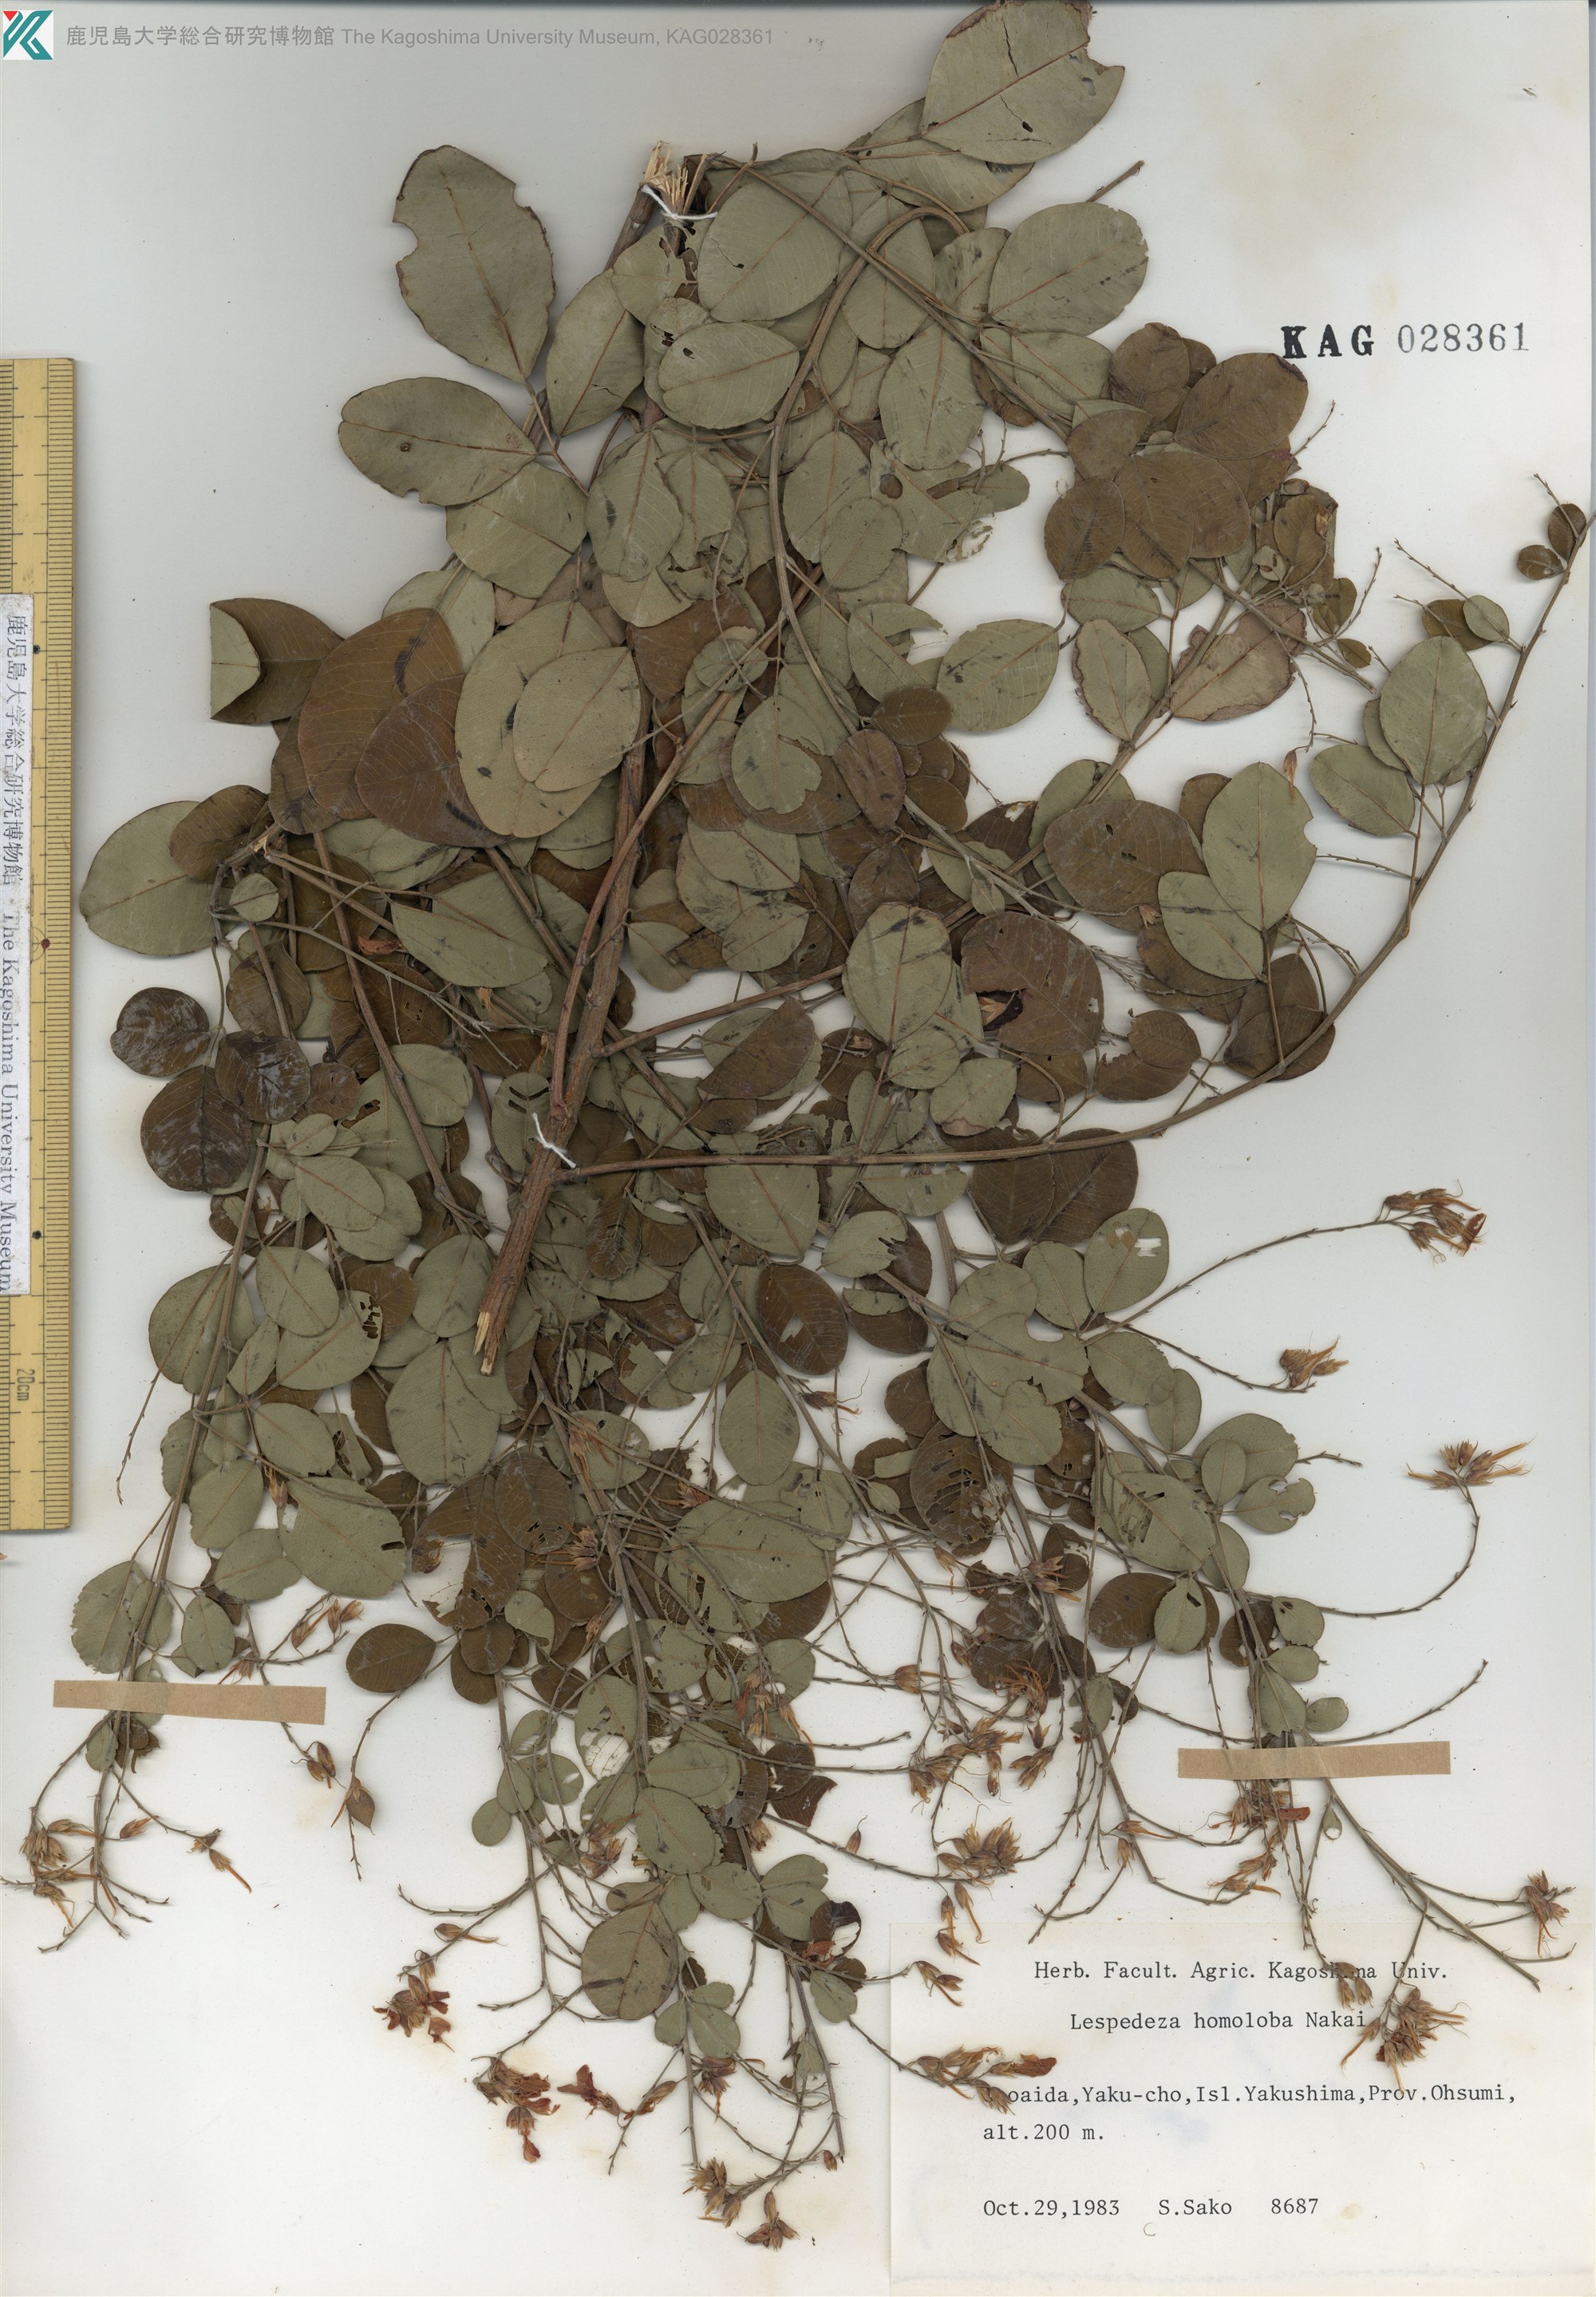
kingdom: Plantae
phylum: Tracheophyta
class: Magnoliopsida
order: Fabales
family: Fabaceae
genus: Lespedeza
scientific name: Lespedeza homoloba
